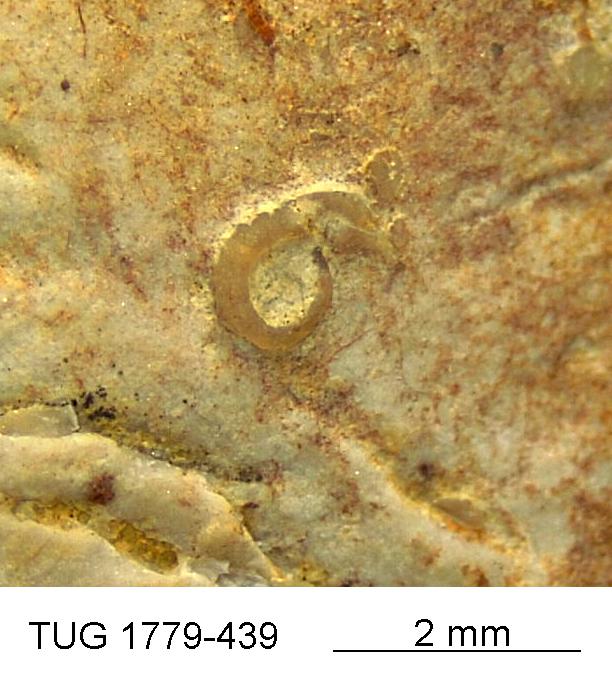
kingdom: Animalia
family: Cornulitidae
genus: Cornulites
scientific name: Cornulites
